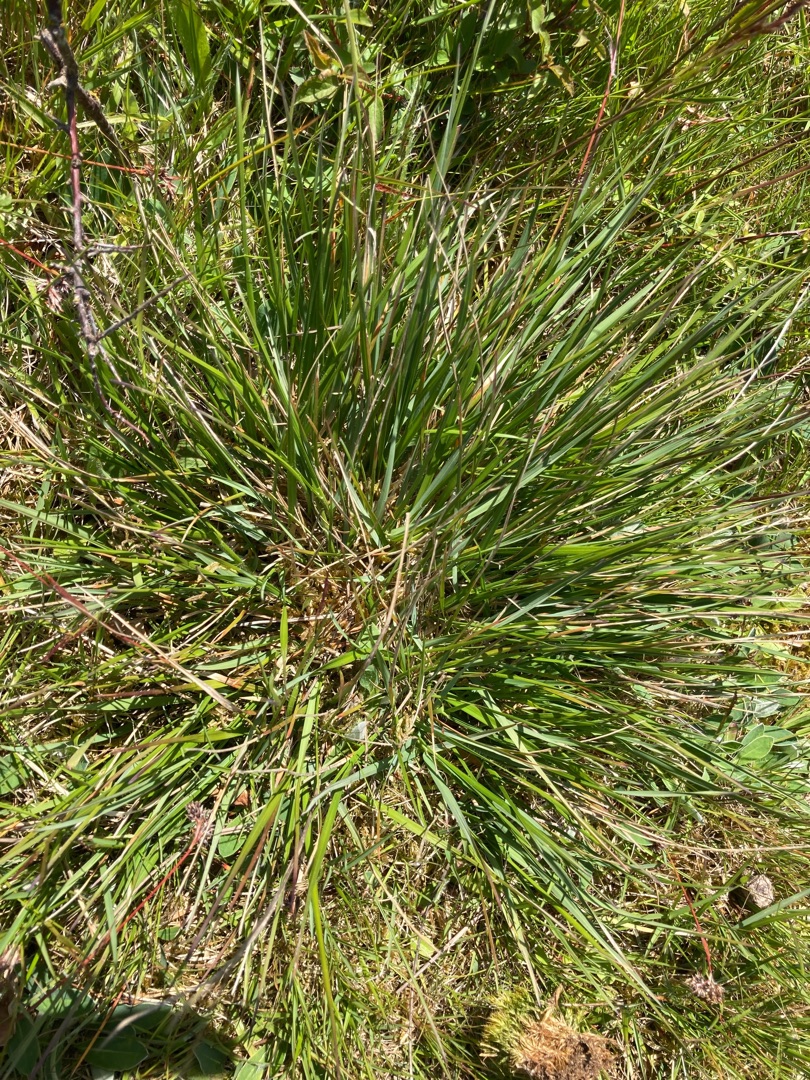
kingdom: Plantae
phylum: Tracheophyta
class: Liliopsida
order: Poales
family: Poaceae
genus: Danthonia
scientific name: Danthonia decumbens
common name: Tandbælg
